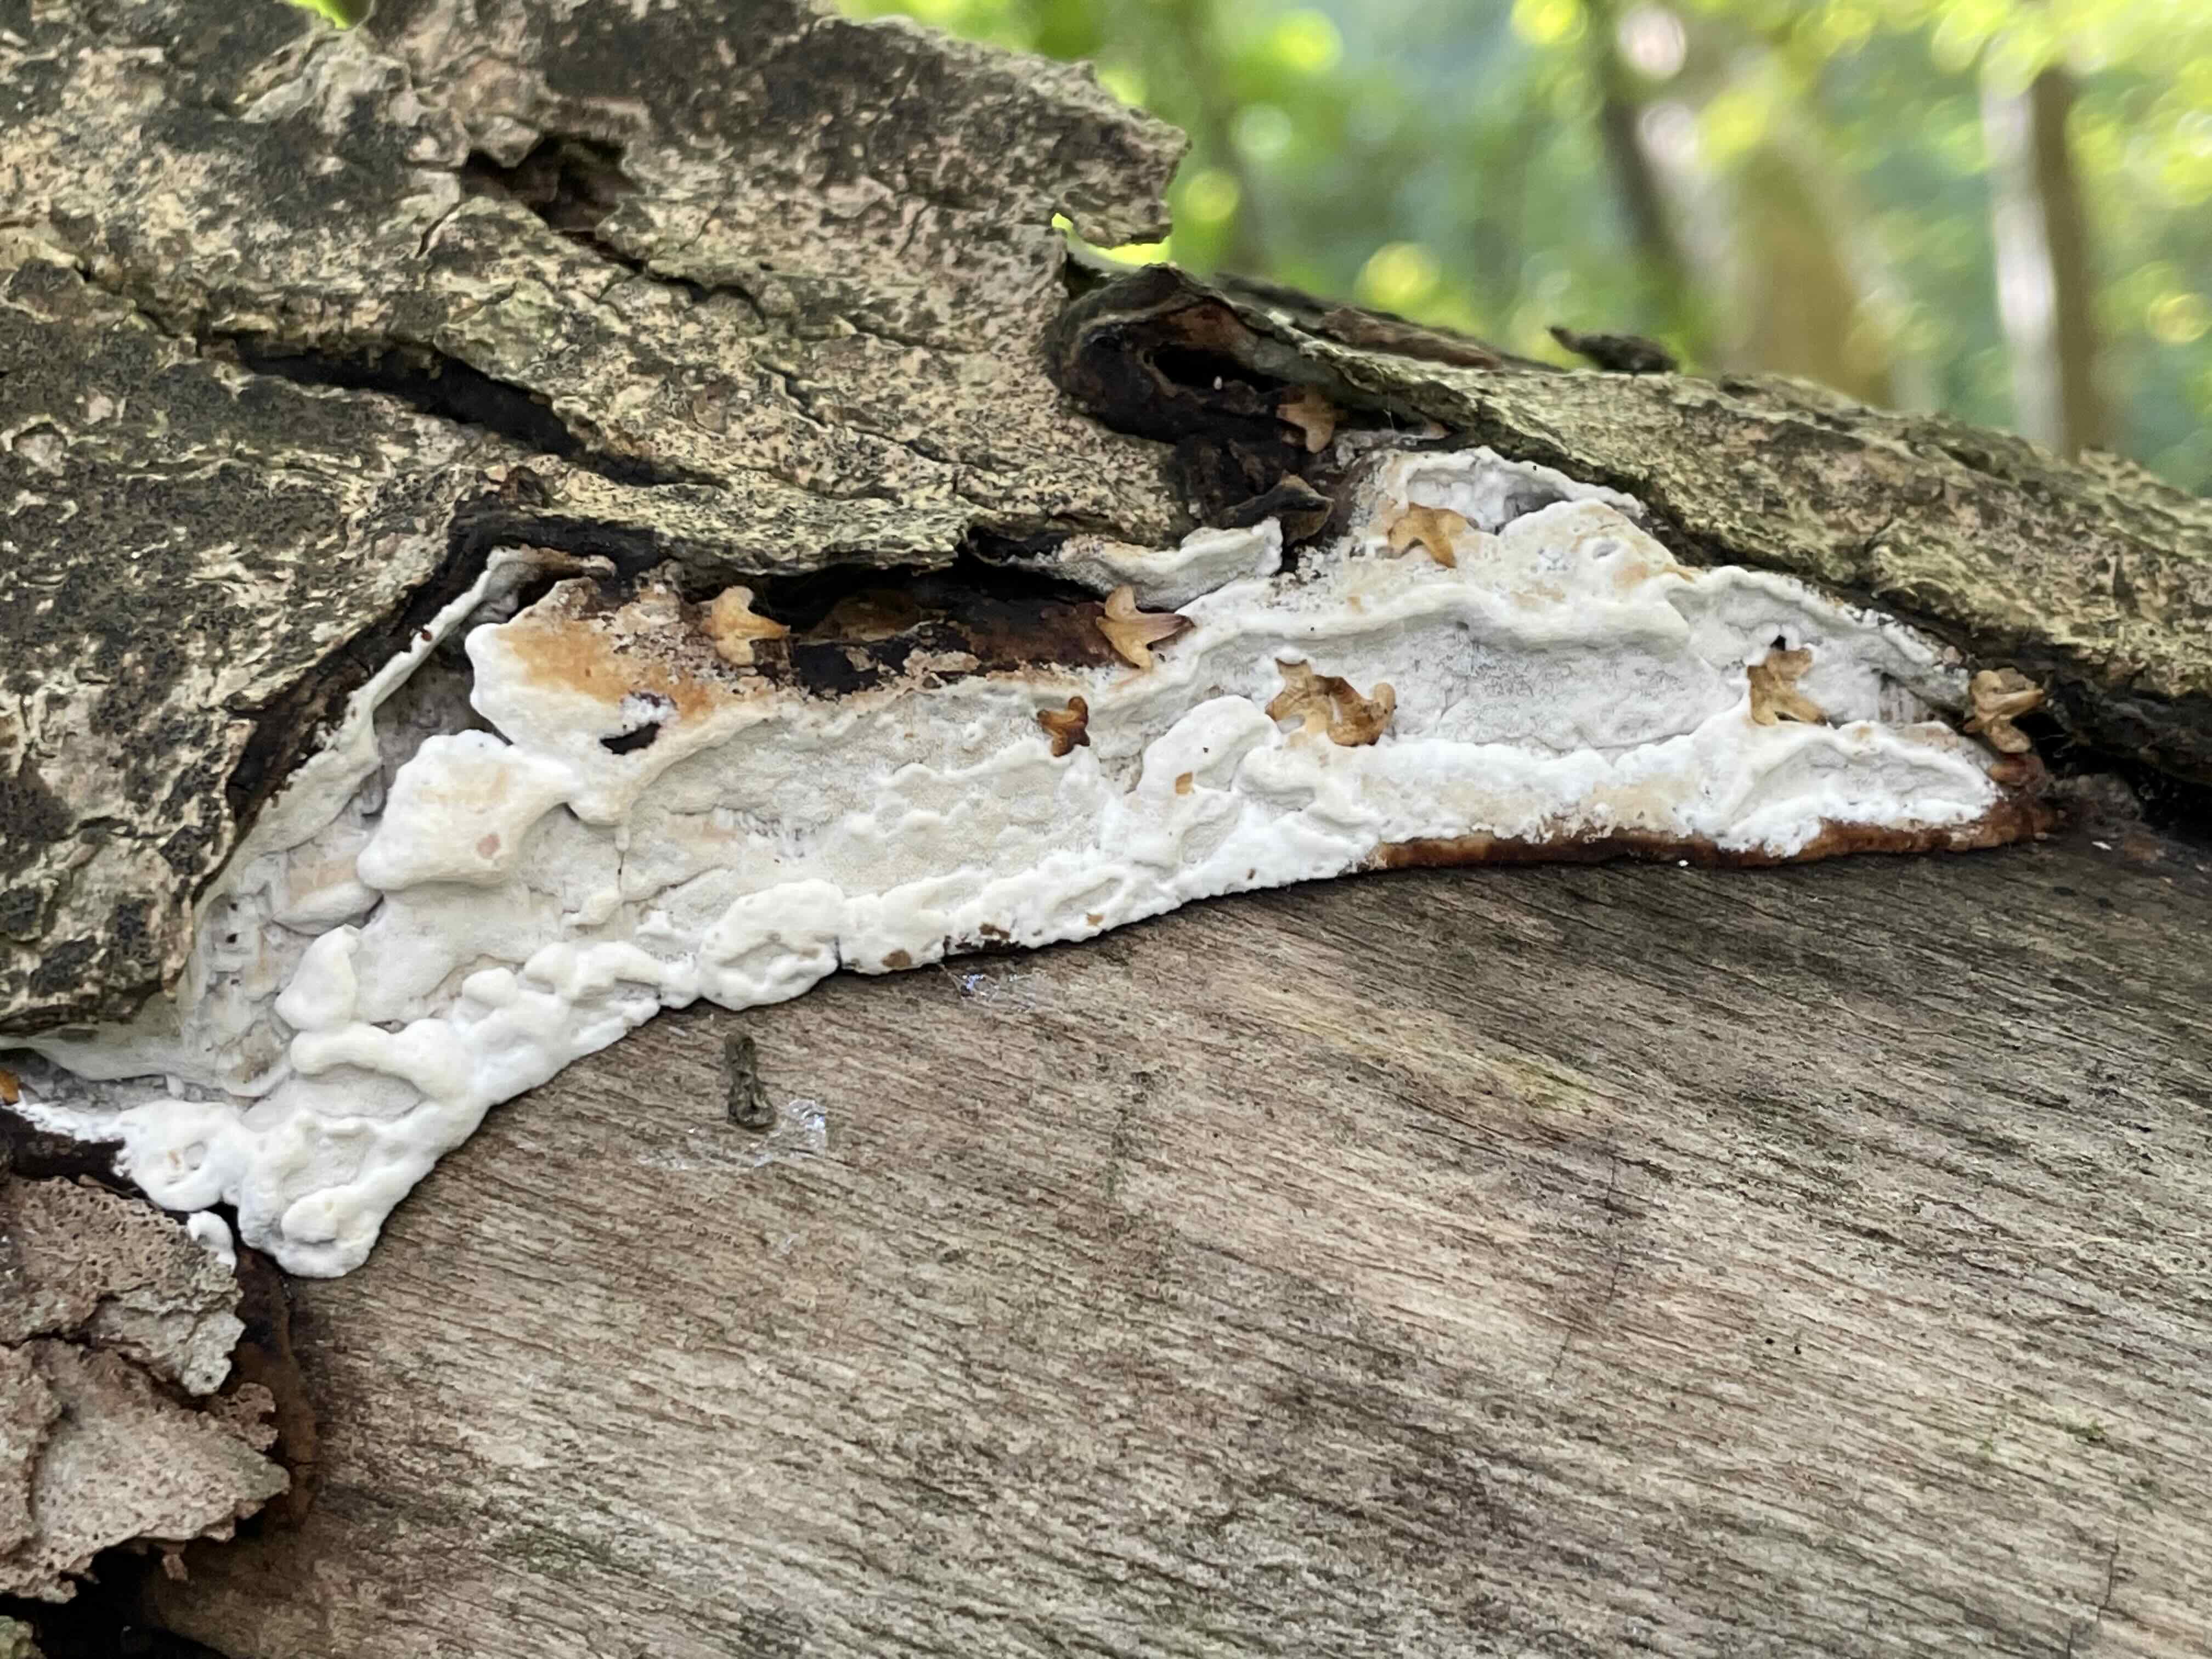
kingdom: Fungi
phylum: Basidiomycota
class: Agaricomycetes
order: Polyporales
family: Incrustoporiaceae
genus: Skeletocutis
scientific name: Skeletocutis nemoralis
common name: stor krystalporesvamp
